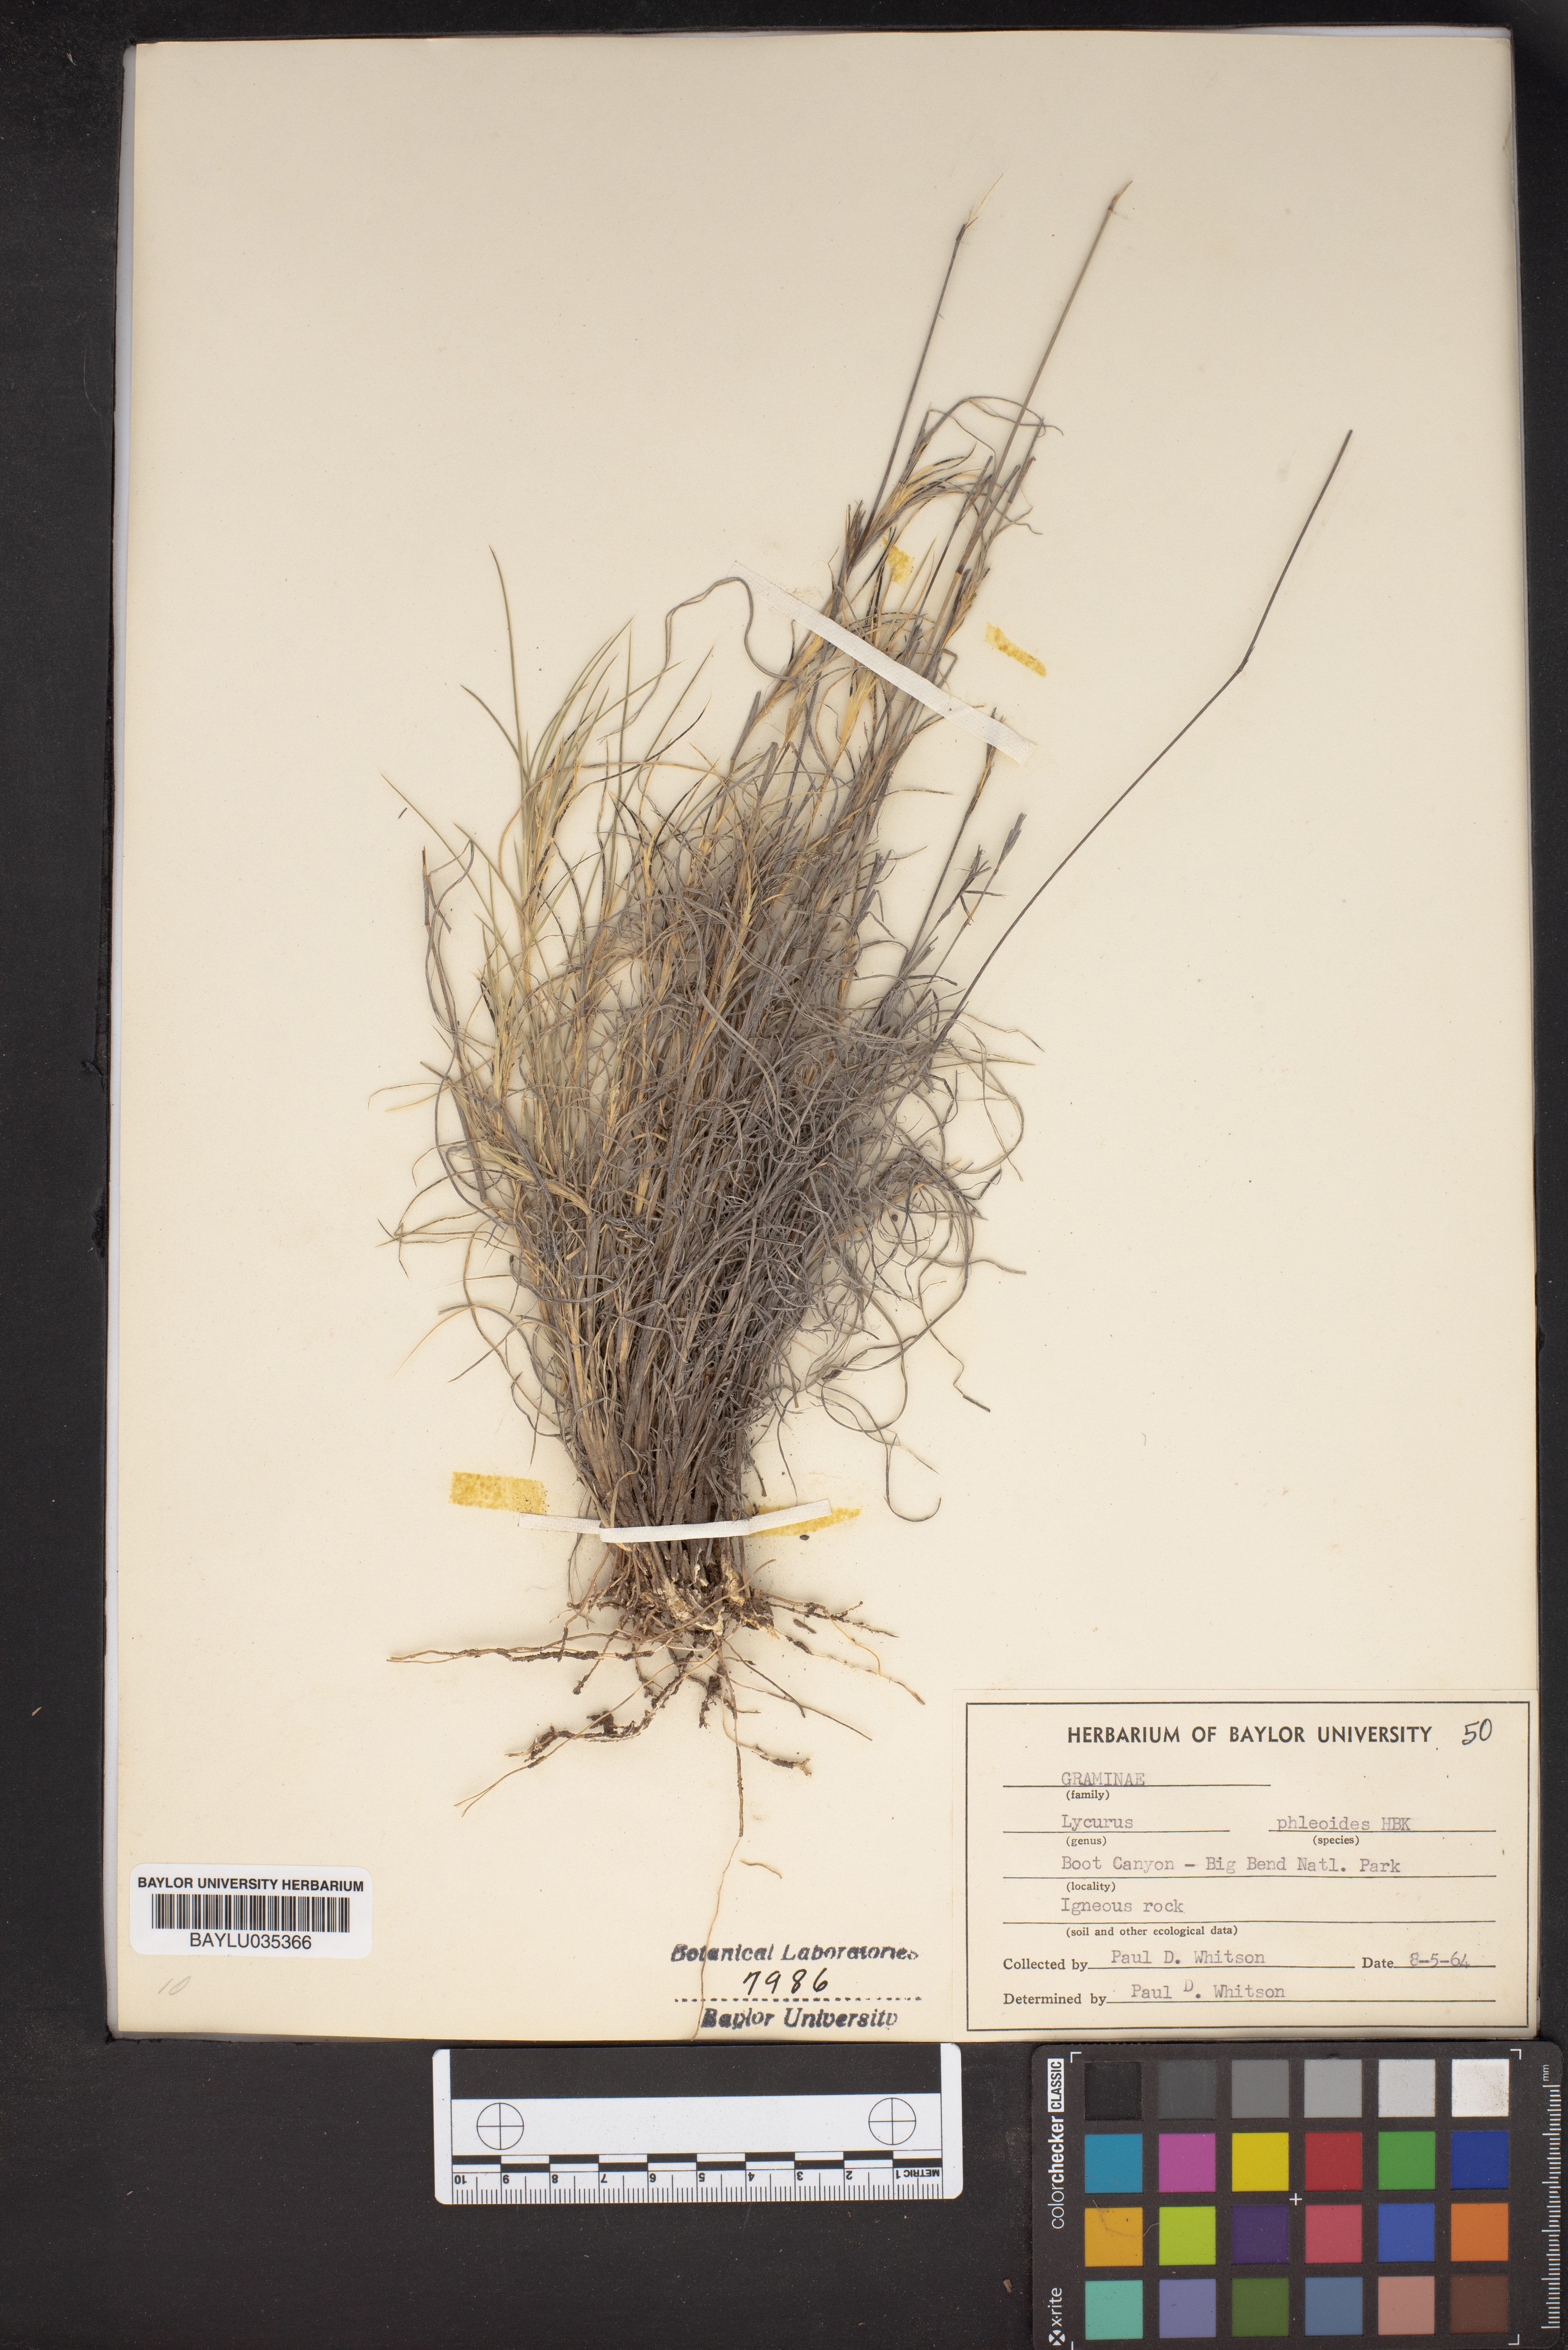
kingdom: Plantae
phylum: Tracheophyta
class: Liliopsida
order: Poales
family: Poaceae
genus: Muhlenbergia
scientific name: Muhlenbergia phleoides
